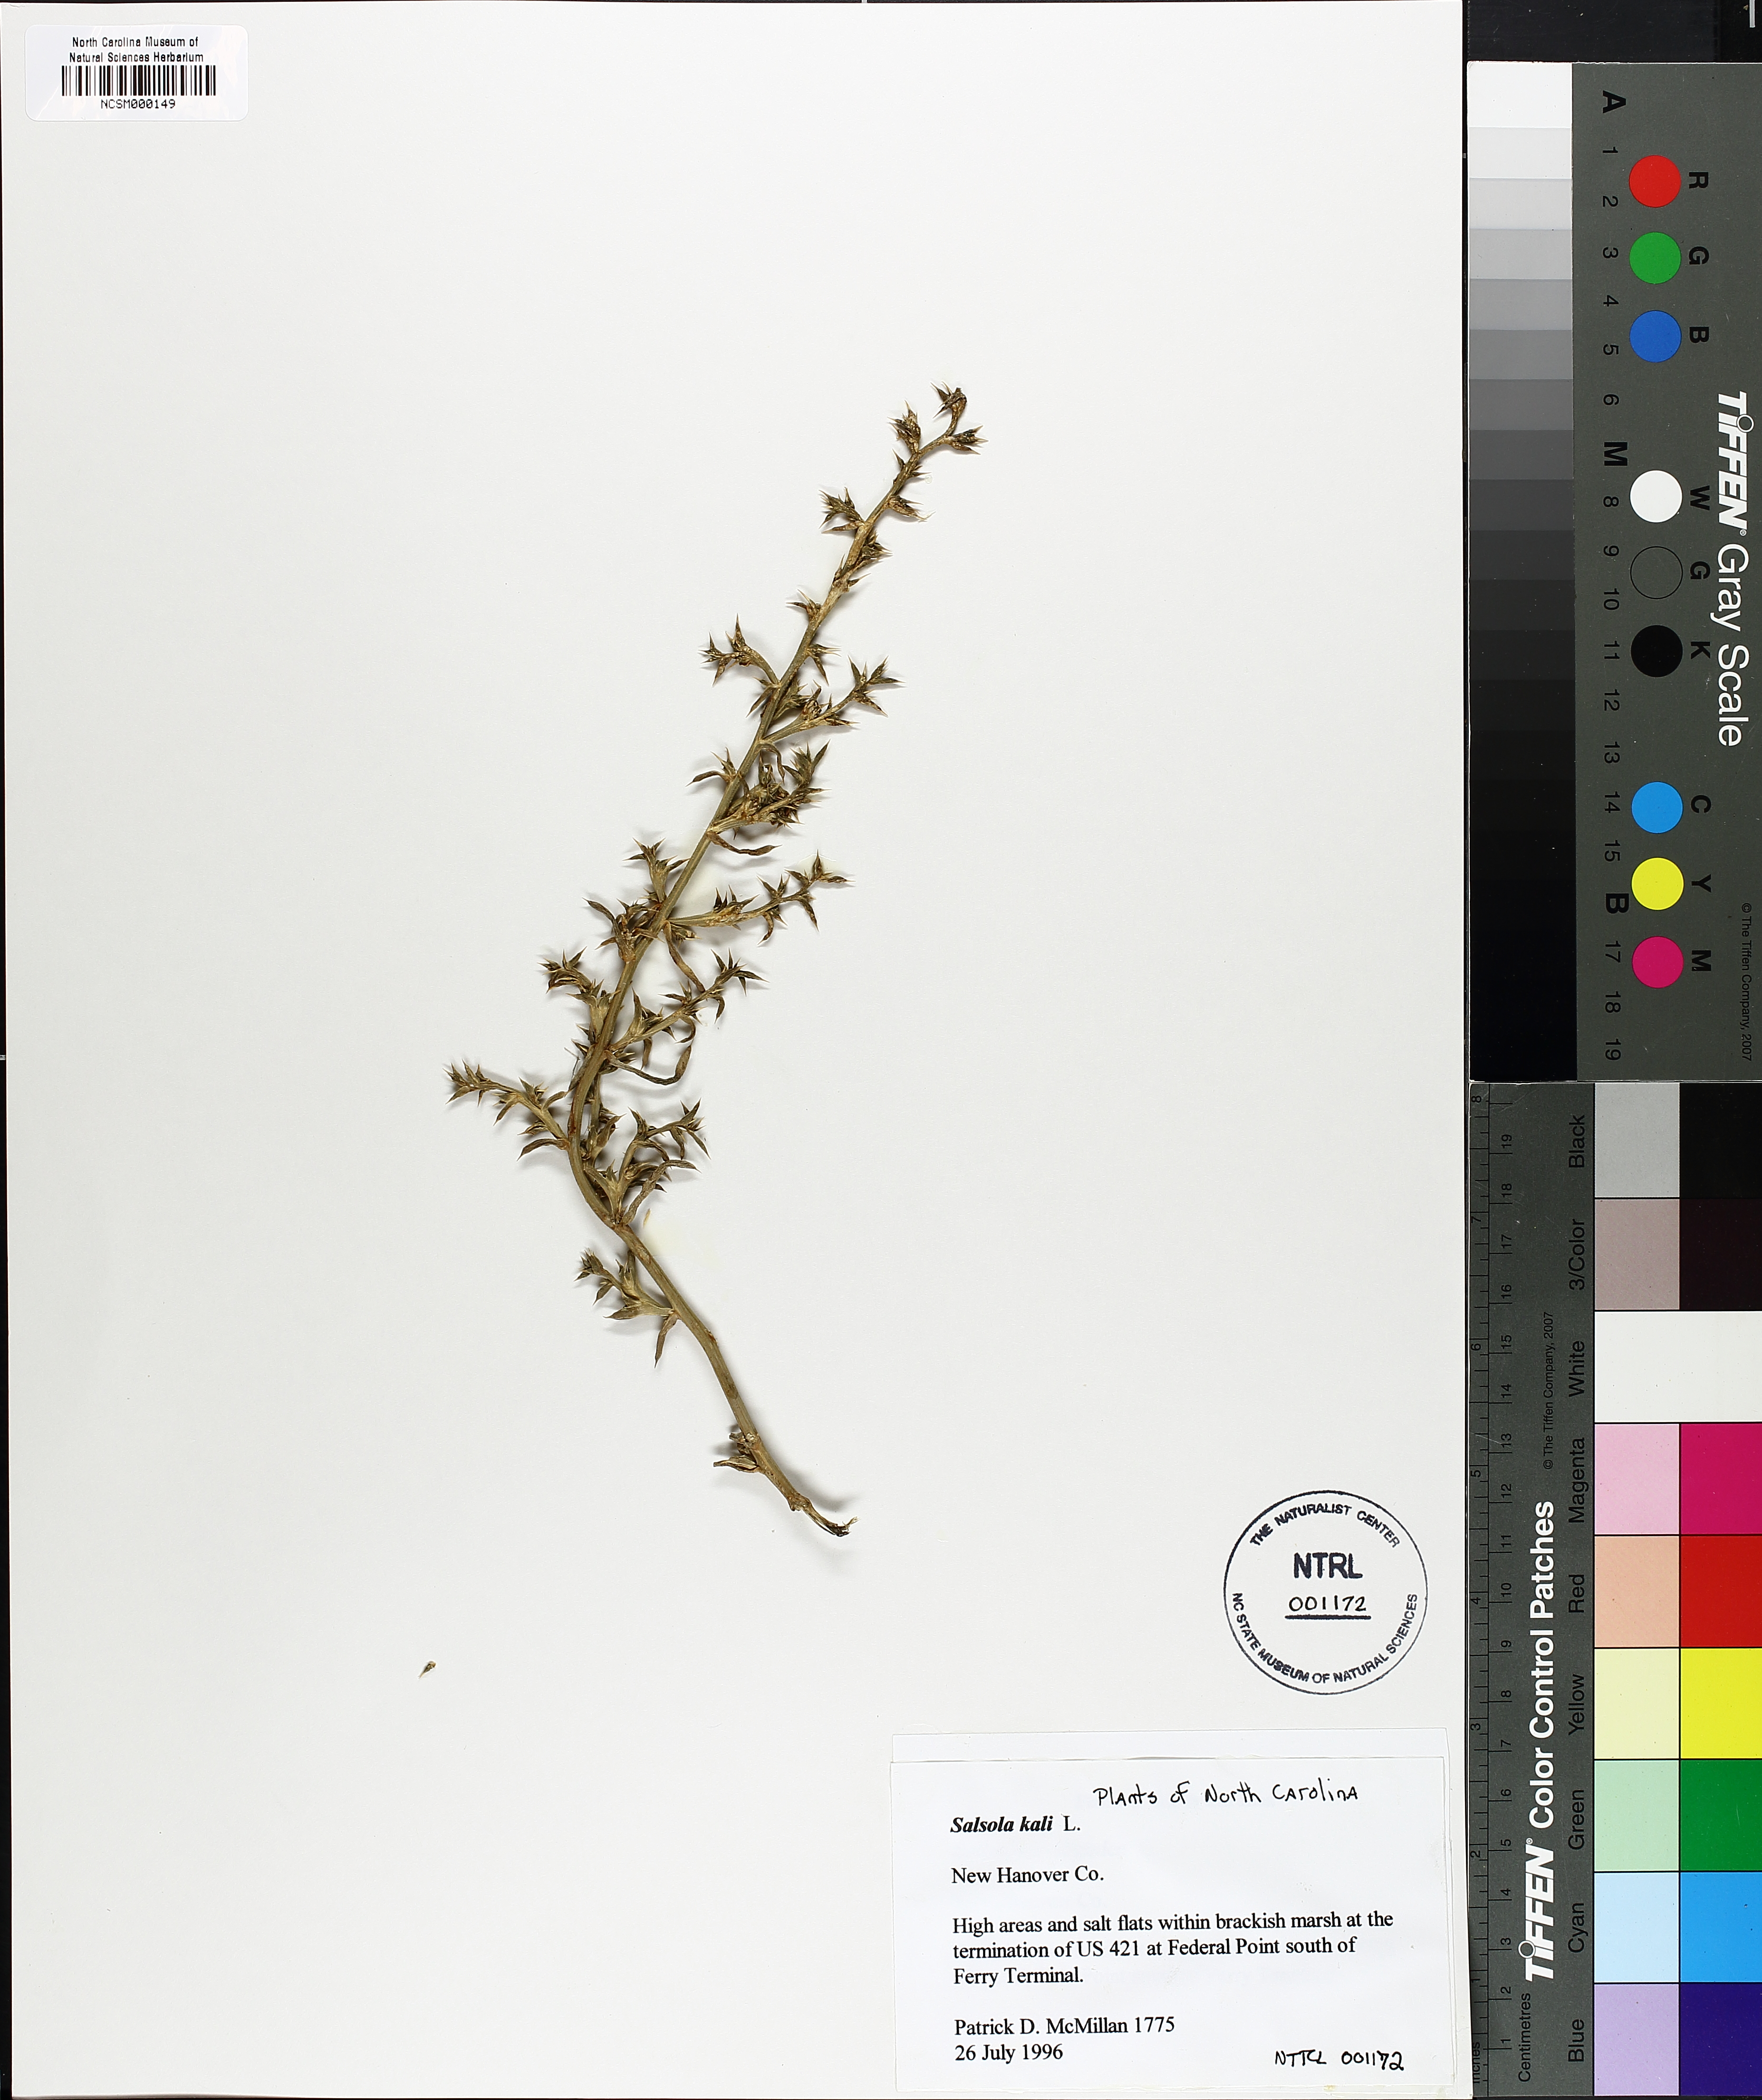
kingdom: Plantae
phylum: Tracheophyta
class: Magnoliopsida
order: Caryophyllales
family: Amaranthaceae
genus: Salsola
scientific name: Salsola kali
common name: Saltwort
